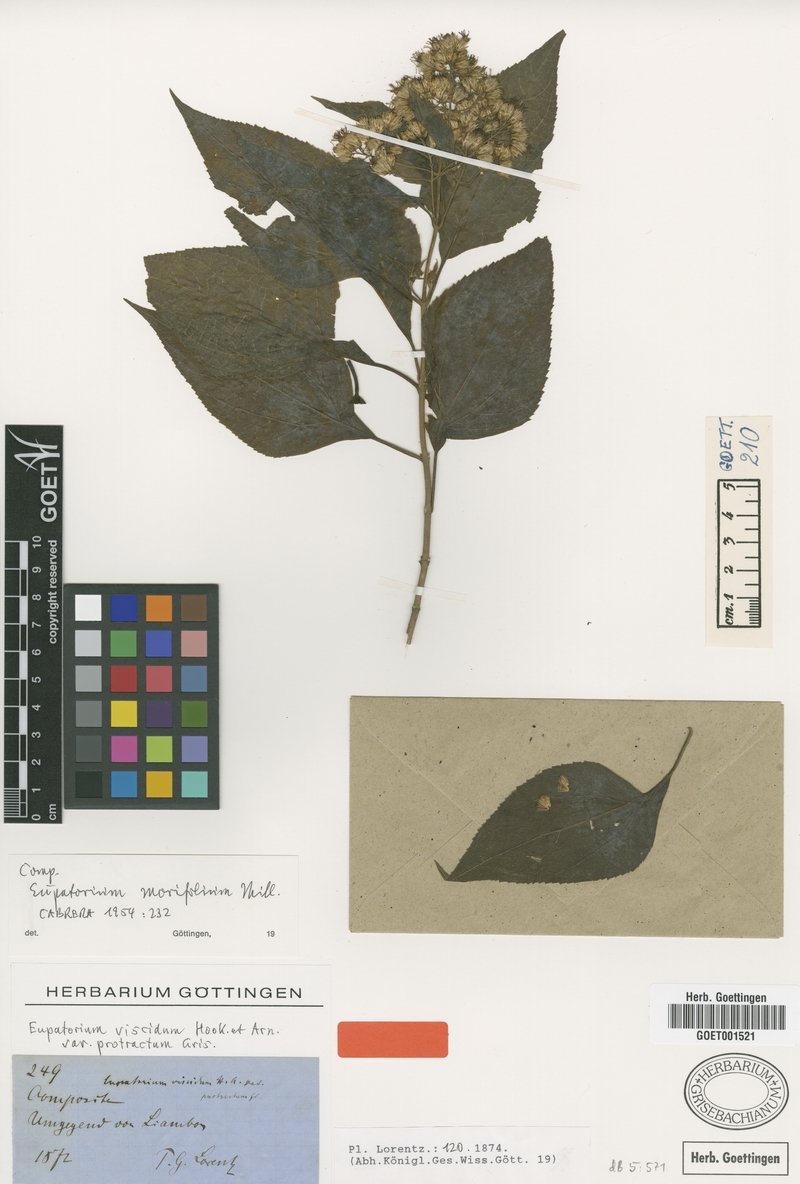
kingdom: Plantae
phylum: Tracheophyta
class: Magnoliopsida
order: Asterales
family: Asteraceae
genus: Critonia
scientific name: Critonia morifolia
